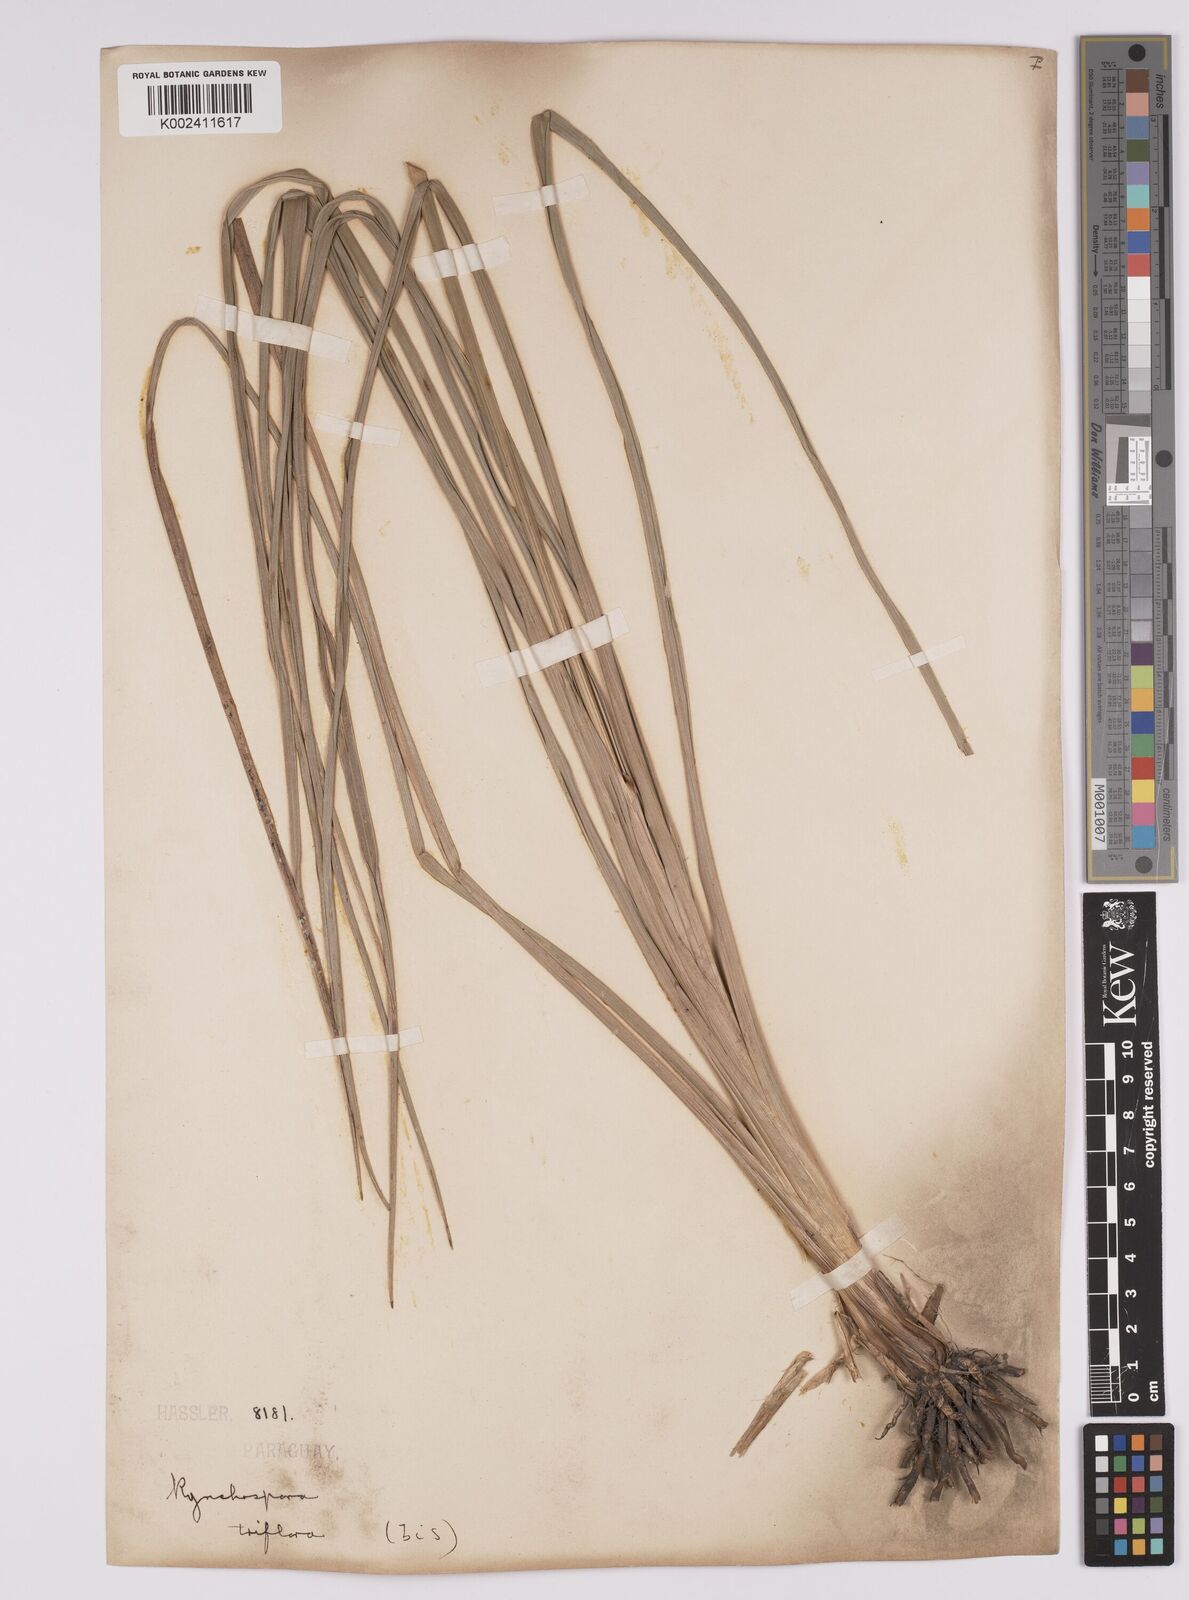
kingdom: Plantae
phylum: Tracheophyta
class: Liliopsida
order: Poales
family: Cyperaceae
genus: Rhynchospora
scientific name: Rhynchospora triflora
